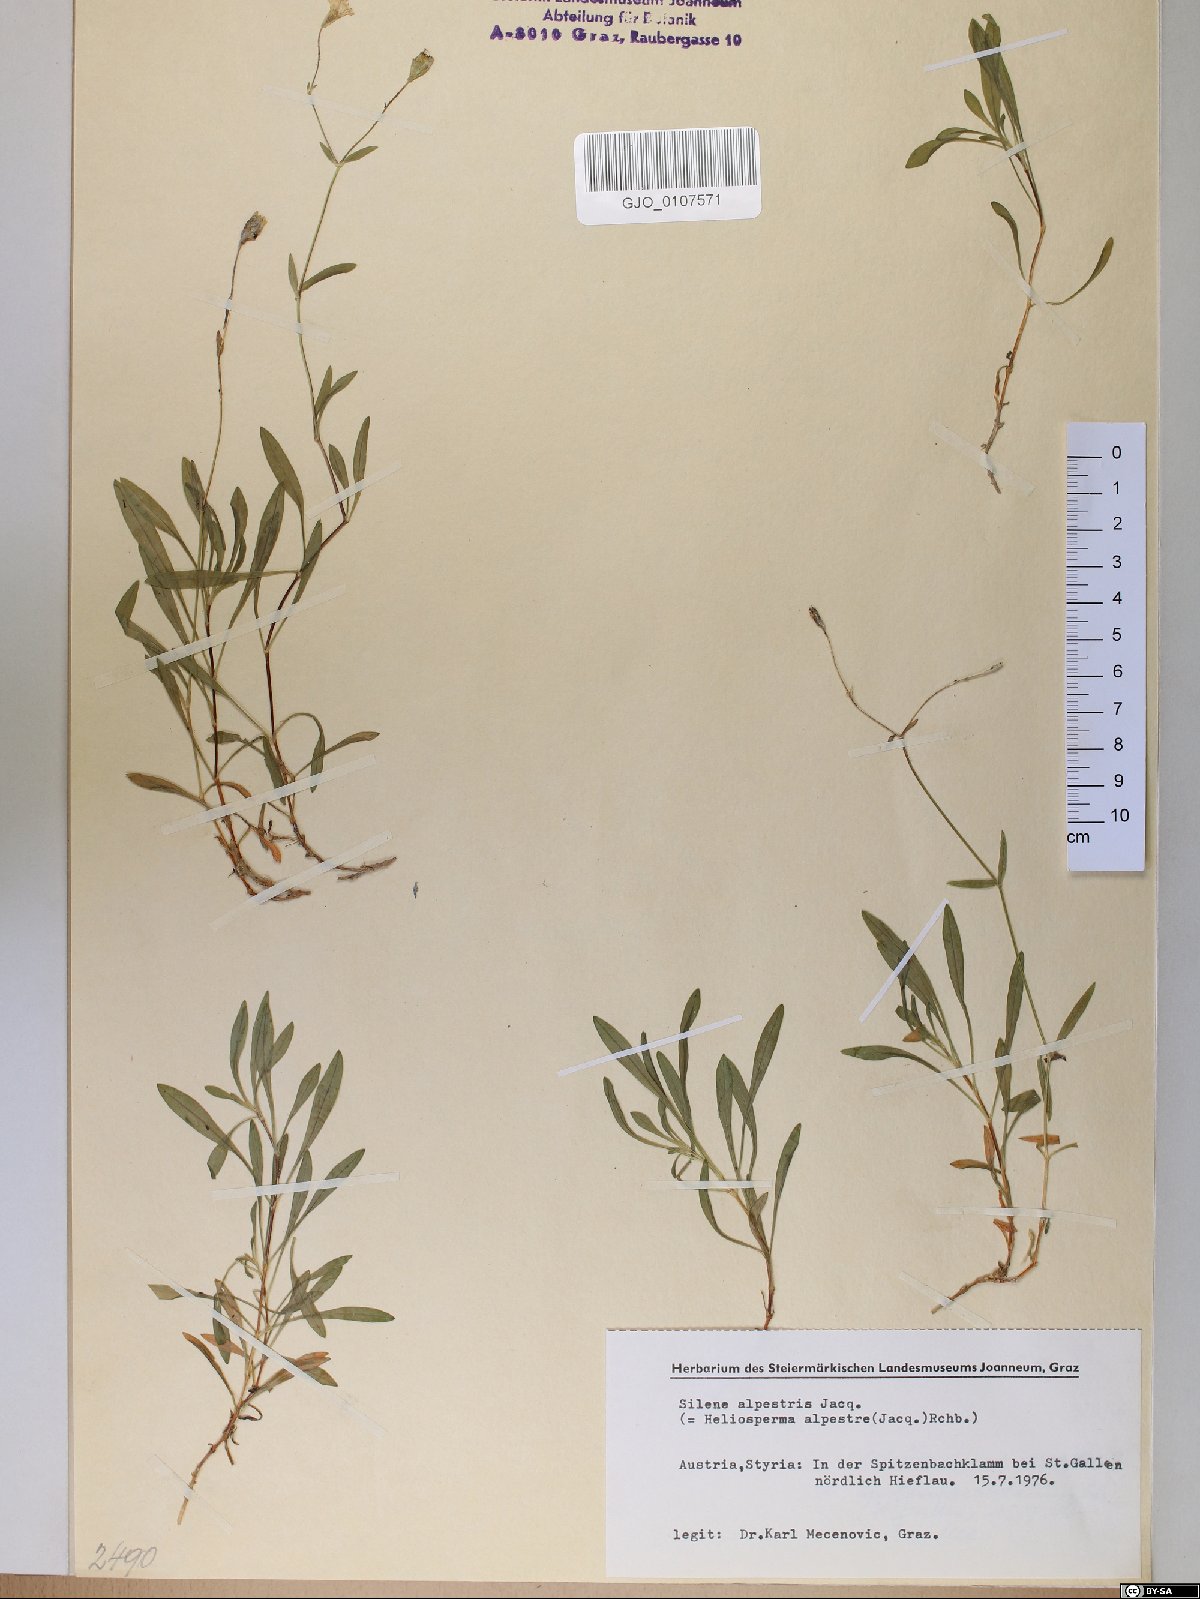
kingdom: Plantae
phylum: Tracheophyta
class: Magnoliopsida
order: Caryophyllales
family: Caryophyllaceae
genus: Heliosperma
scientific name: Heliosperma alpestre
